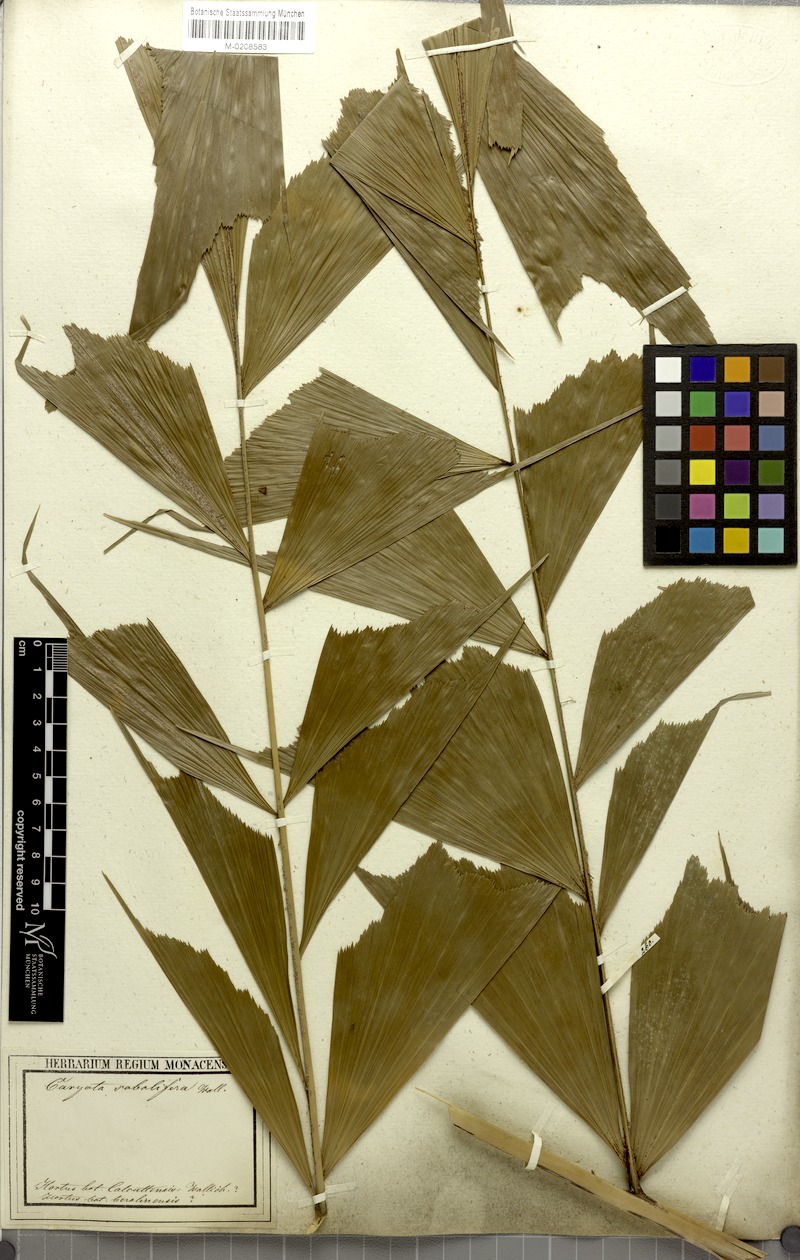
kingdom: Plantae
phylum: Tracheophyta
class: Liliopsida
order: Arecales
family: Arecaceae
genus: Caryota
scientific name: Caryota mitis
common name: Burmese fishtail palm
